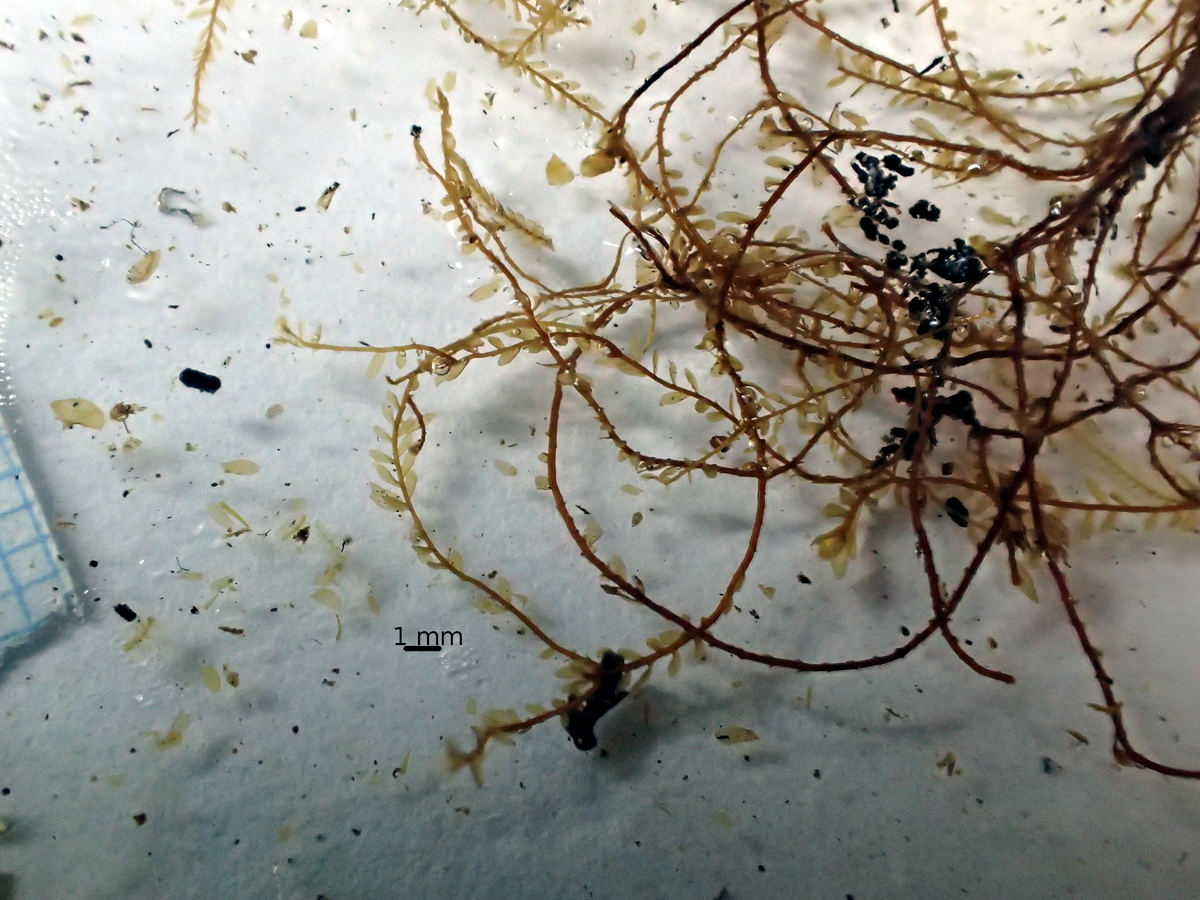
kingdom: Plantae
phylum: Marchantiophyta
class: Jungermanniopsida
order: Jungermanniales
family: Plagiochilaceae
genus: Plagiochila
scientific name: Plagiochila pectinata
